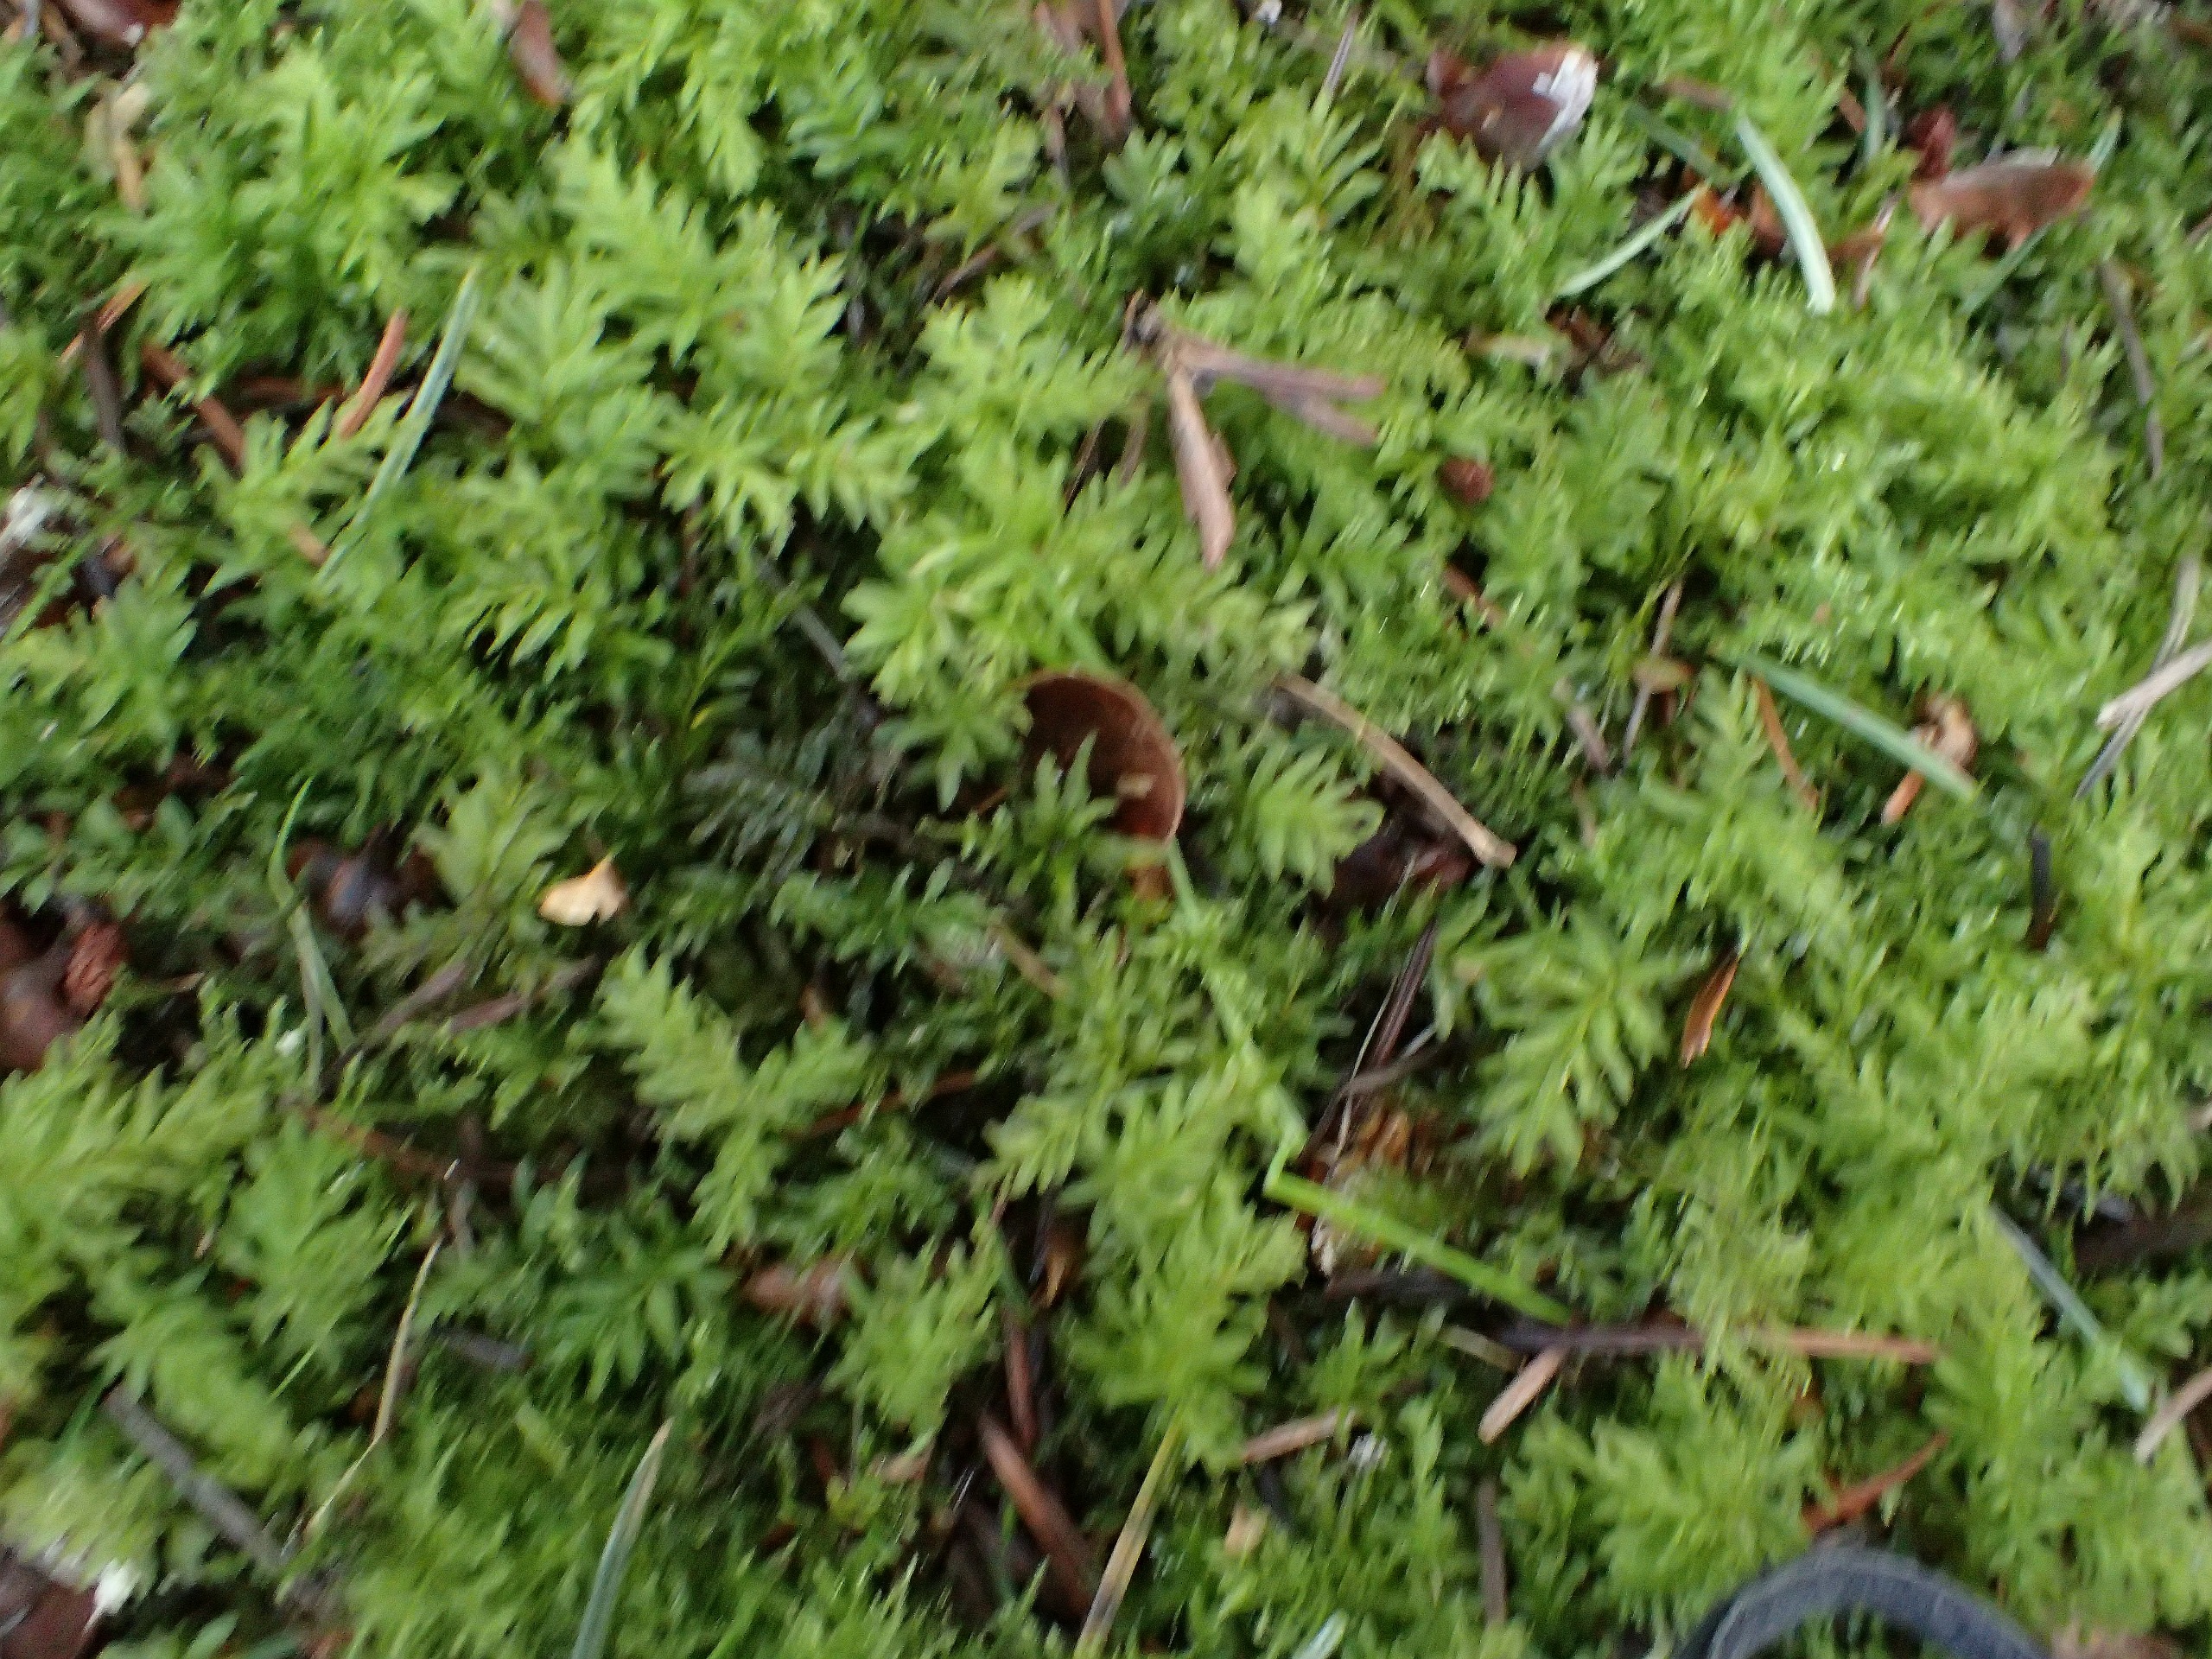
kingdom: Plantae
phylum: Bryophyta
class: Bryopsida
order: Bryales
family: Mniaceae
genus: Plagiomnium
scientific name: Plagiomnium undulatum
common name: Bølget krybstjerne
